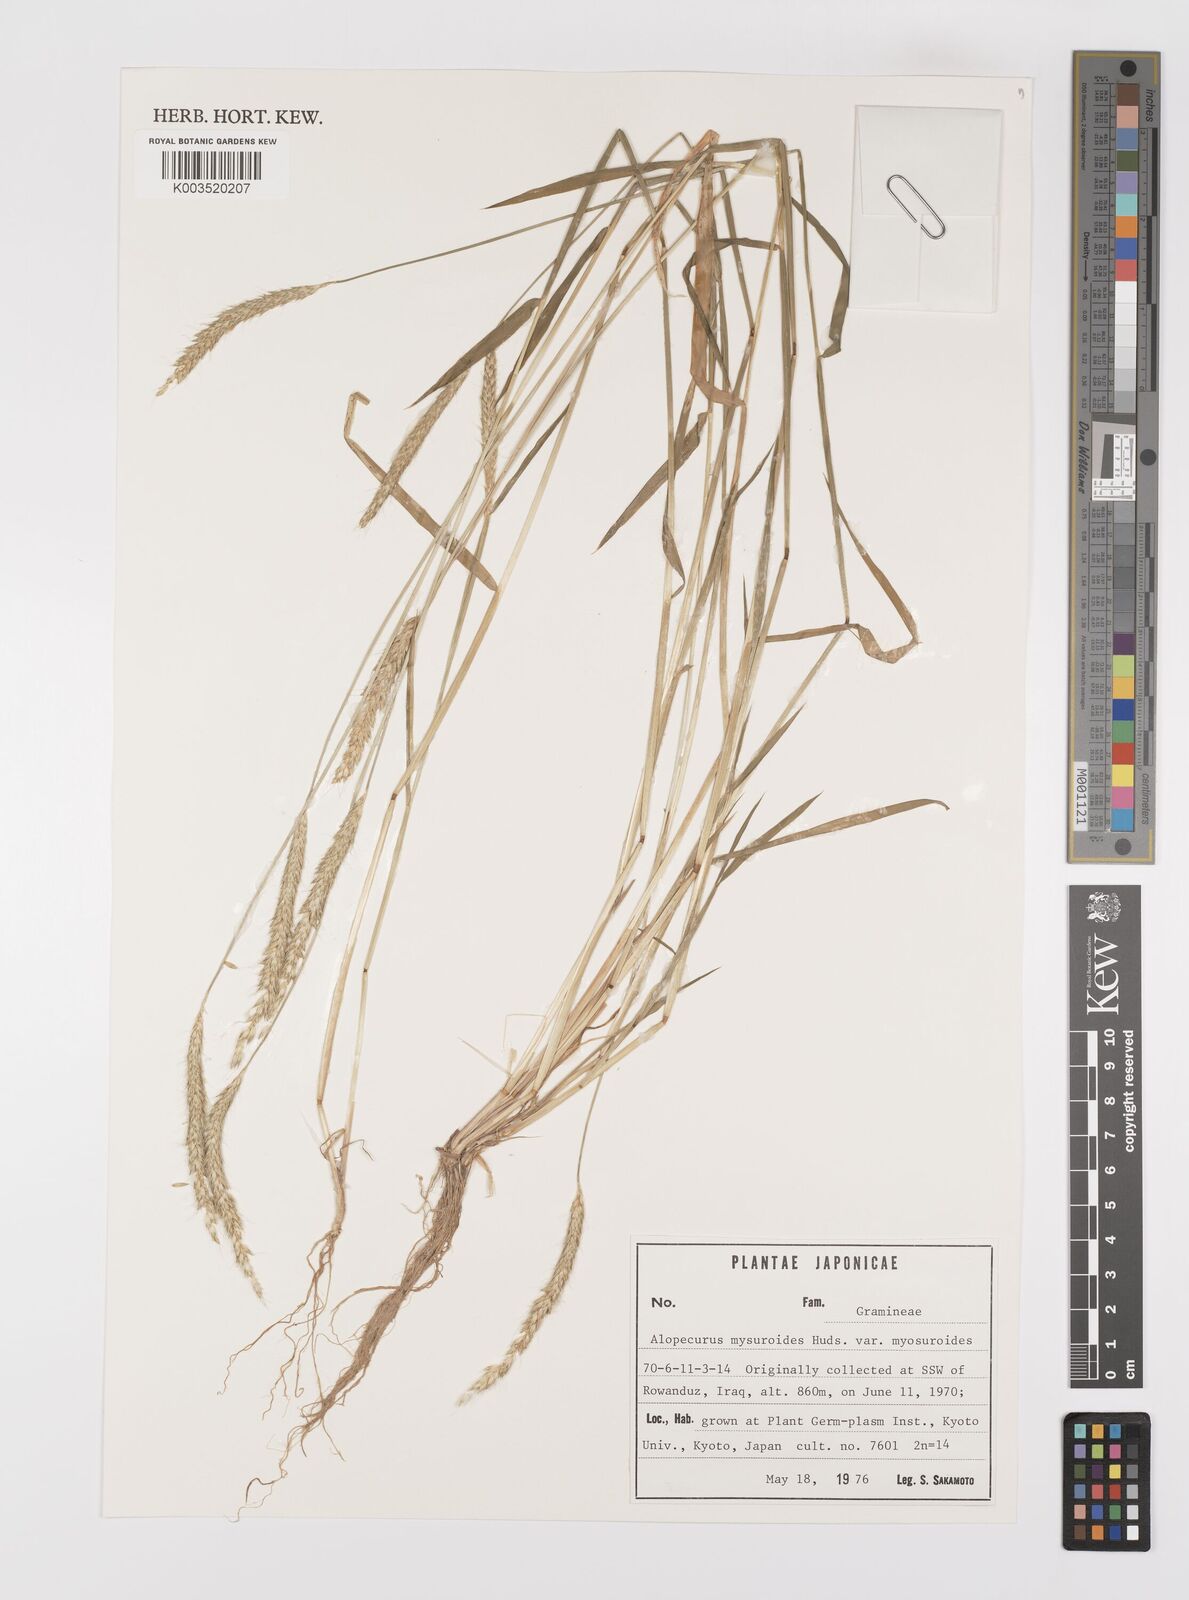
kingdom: Plantae
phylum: Tracheophyta
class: Liliopsida
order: Poales
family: Poaceae
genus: Alopecurus
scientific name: Alopecurus myosuroides
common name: Black-grass
